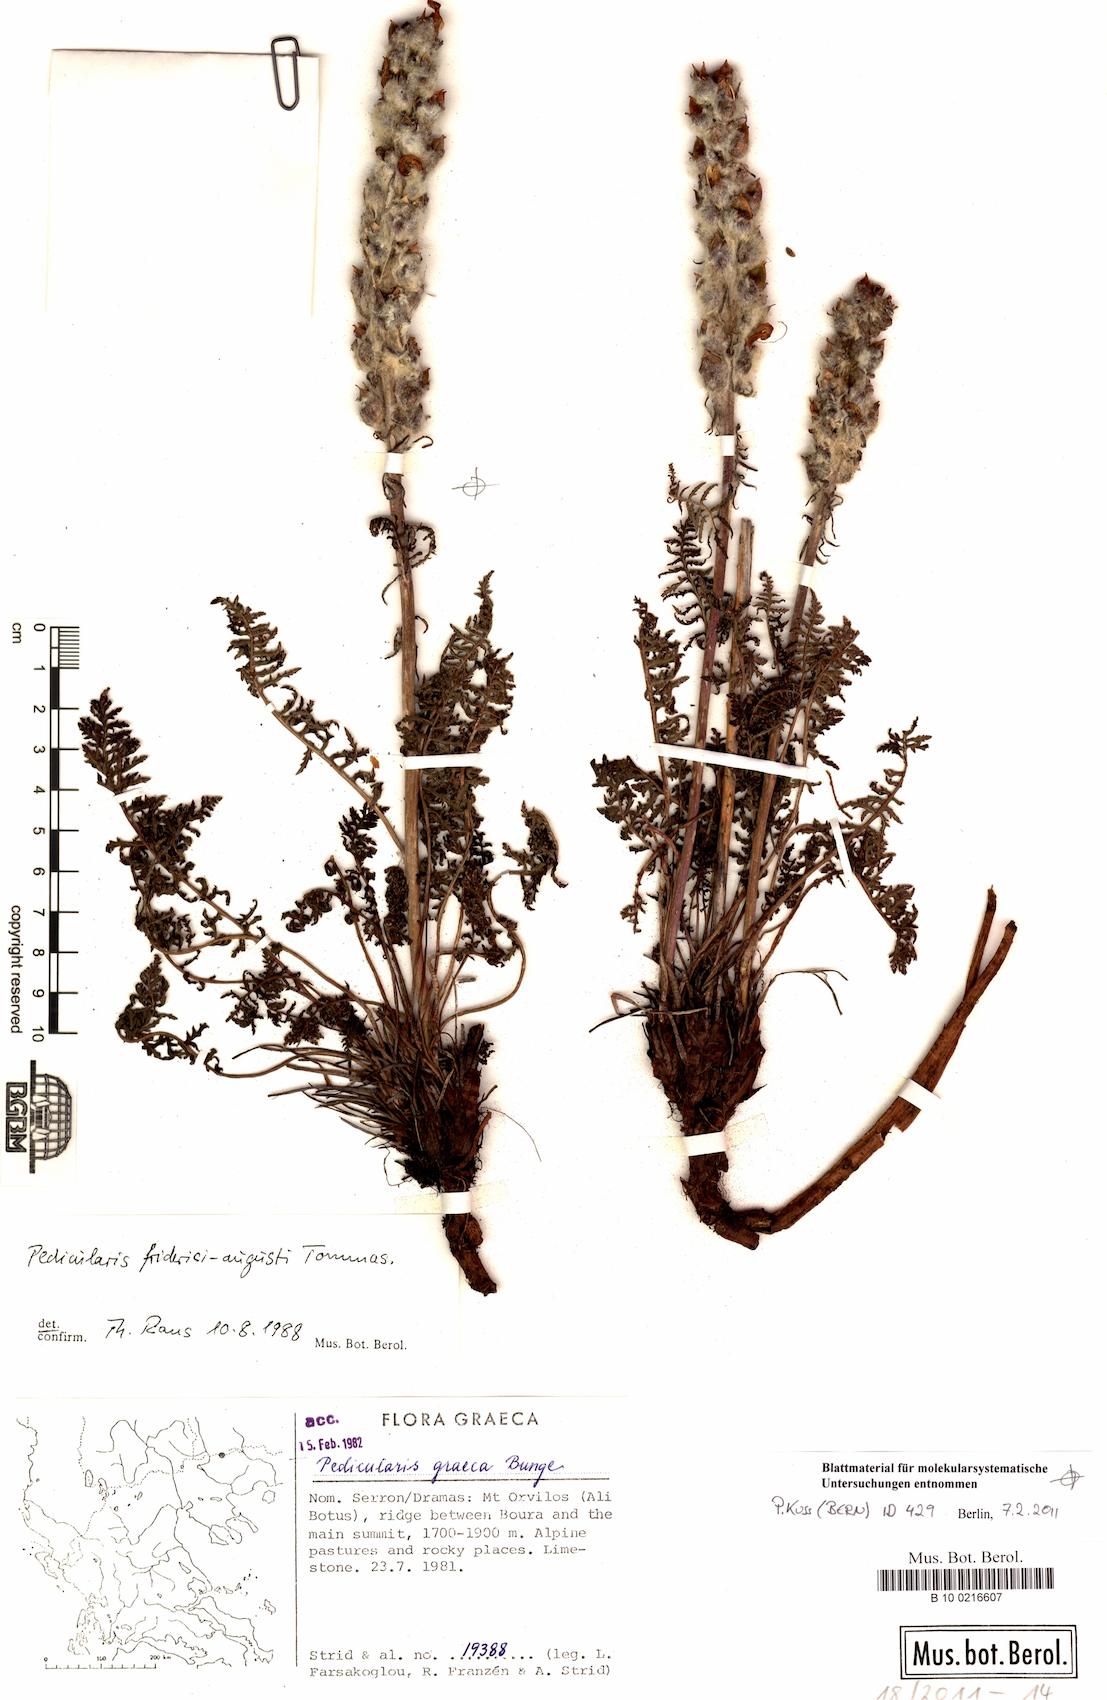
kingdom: Plantae
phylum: Tracheophyta
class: Magnoliopsida
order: Lamiales
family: Orobanchaceae
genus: Pedicularis
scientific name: Pedicularis friderici-augusti
